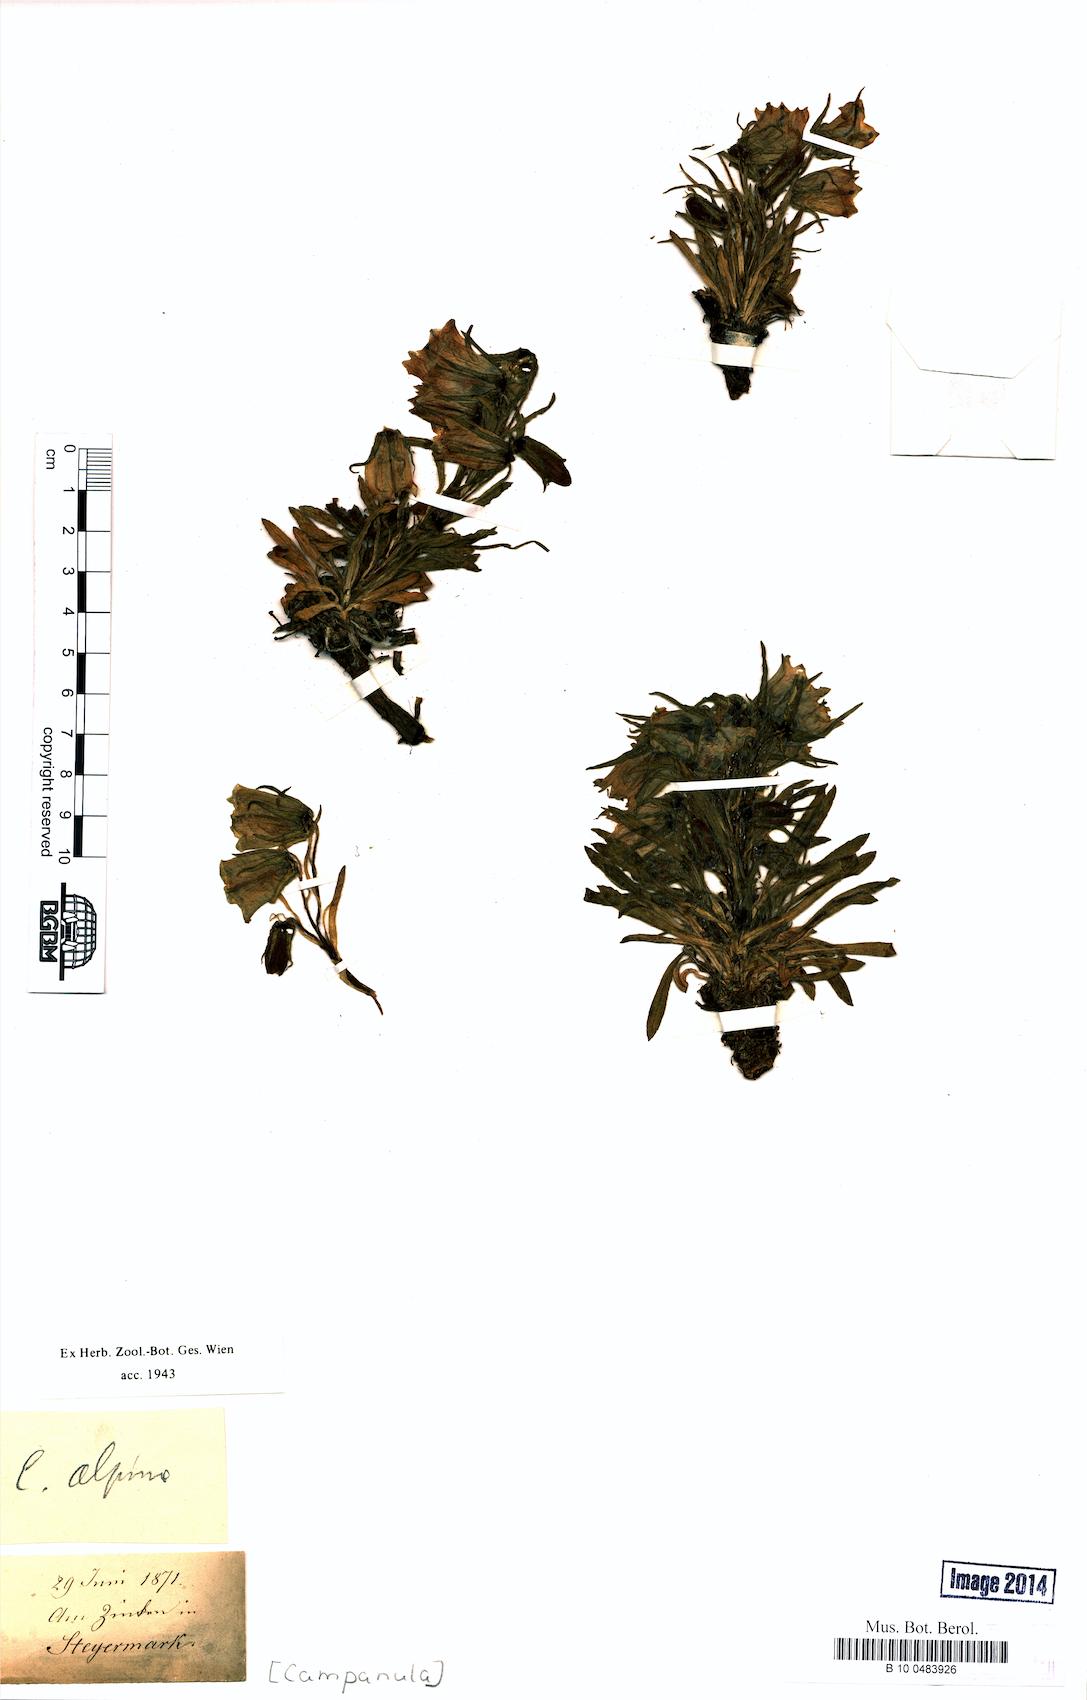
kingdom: Plantae
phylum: Tracheophyta
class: Magnoliopsida
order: Asterales
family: Campanulaceae
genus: Campanula
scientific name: Campanula alpina
